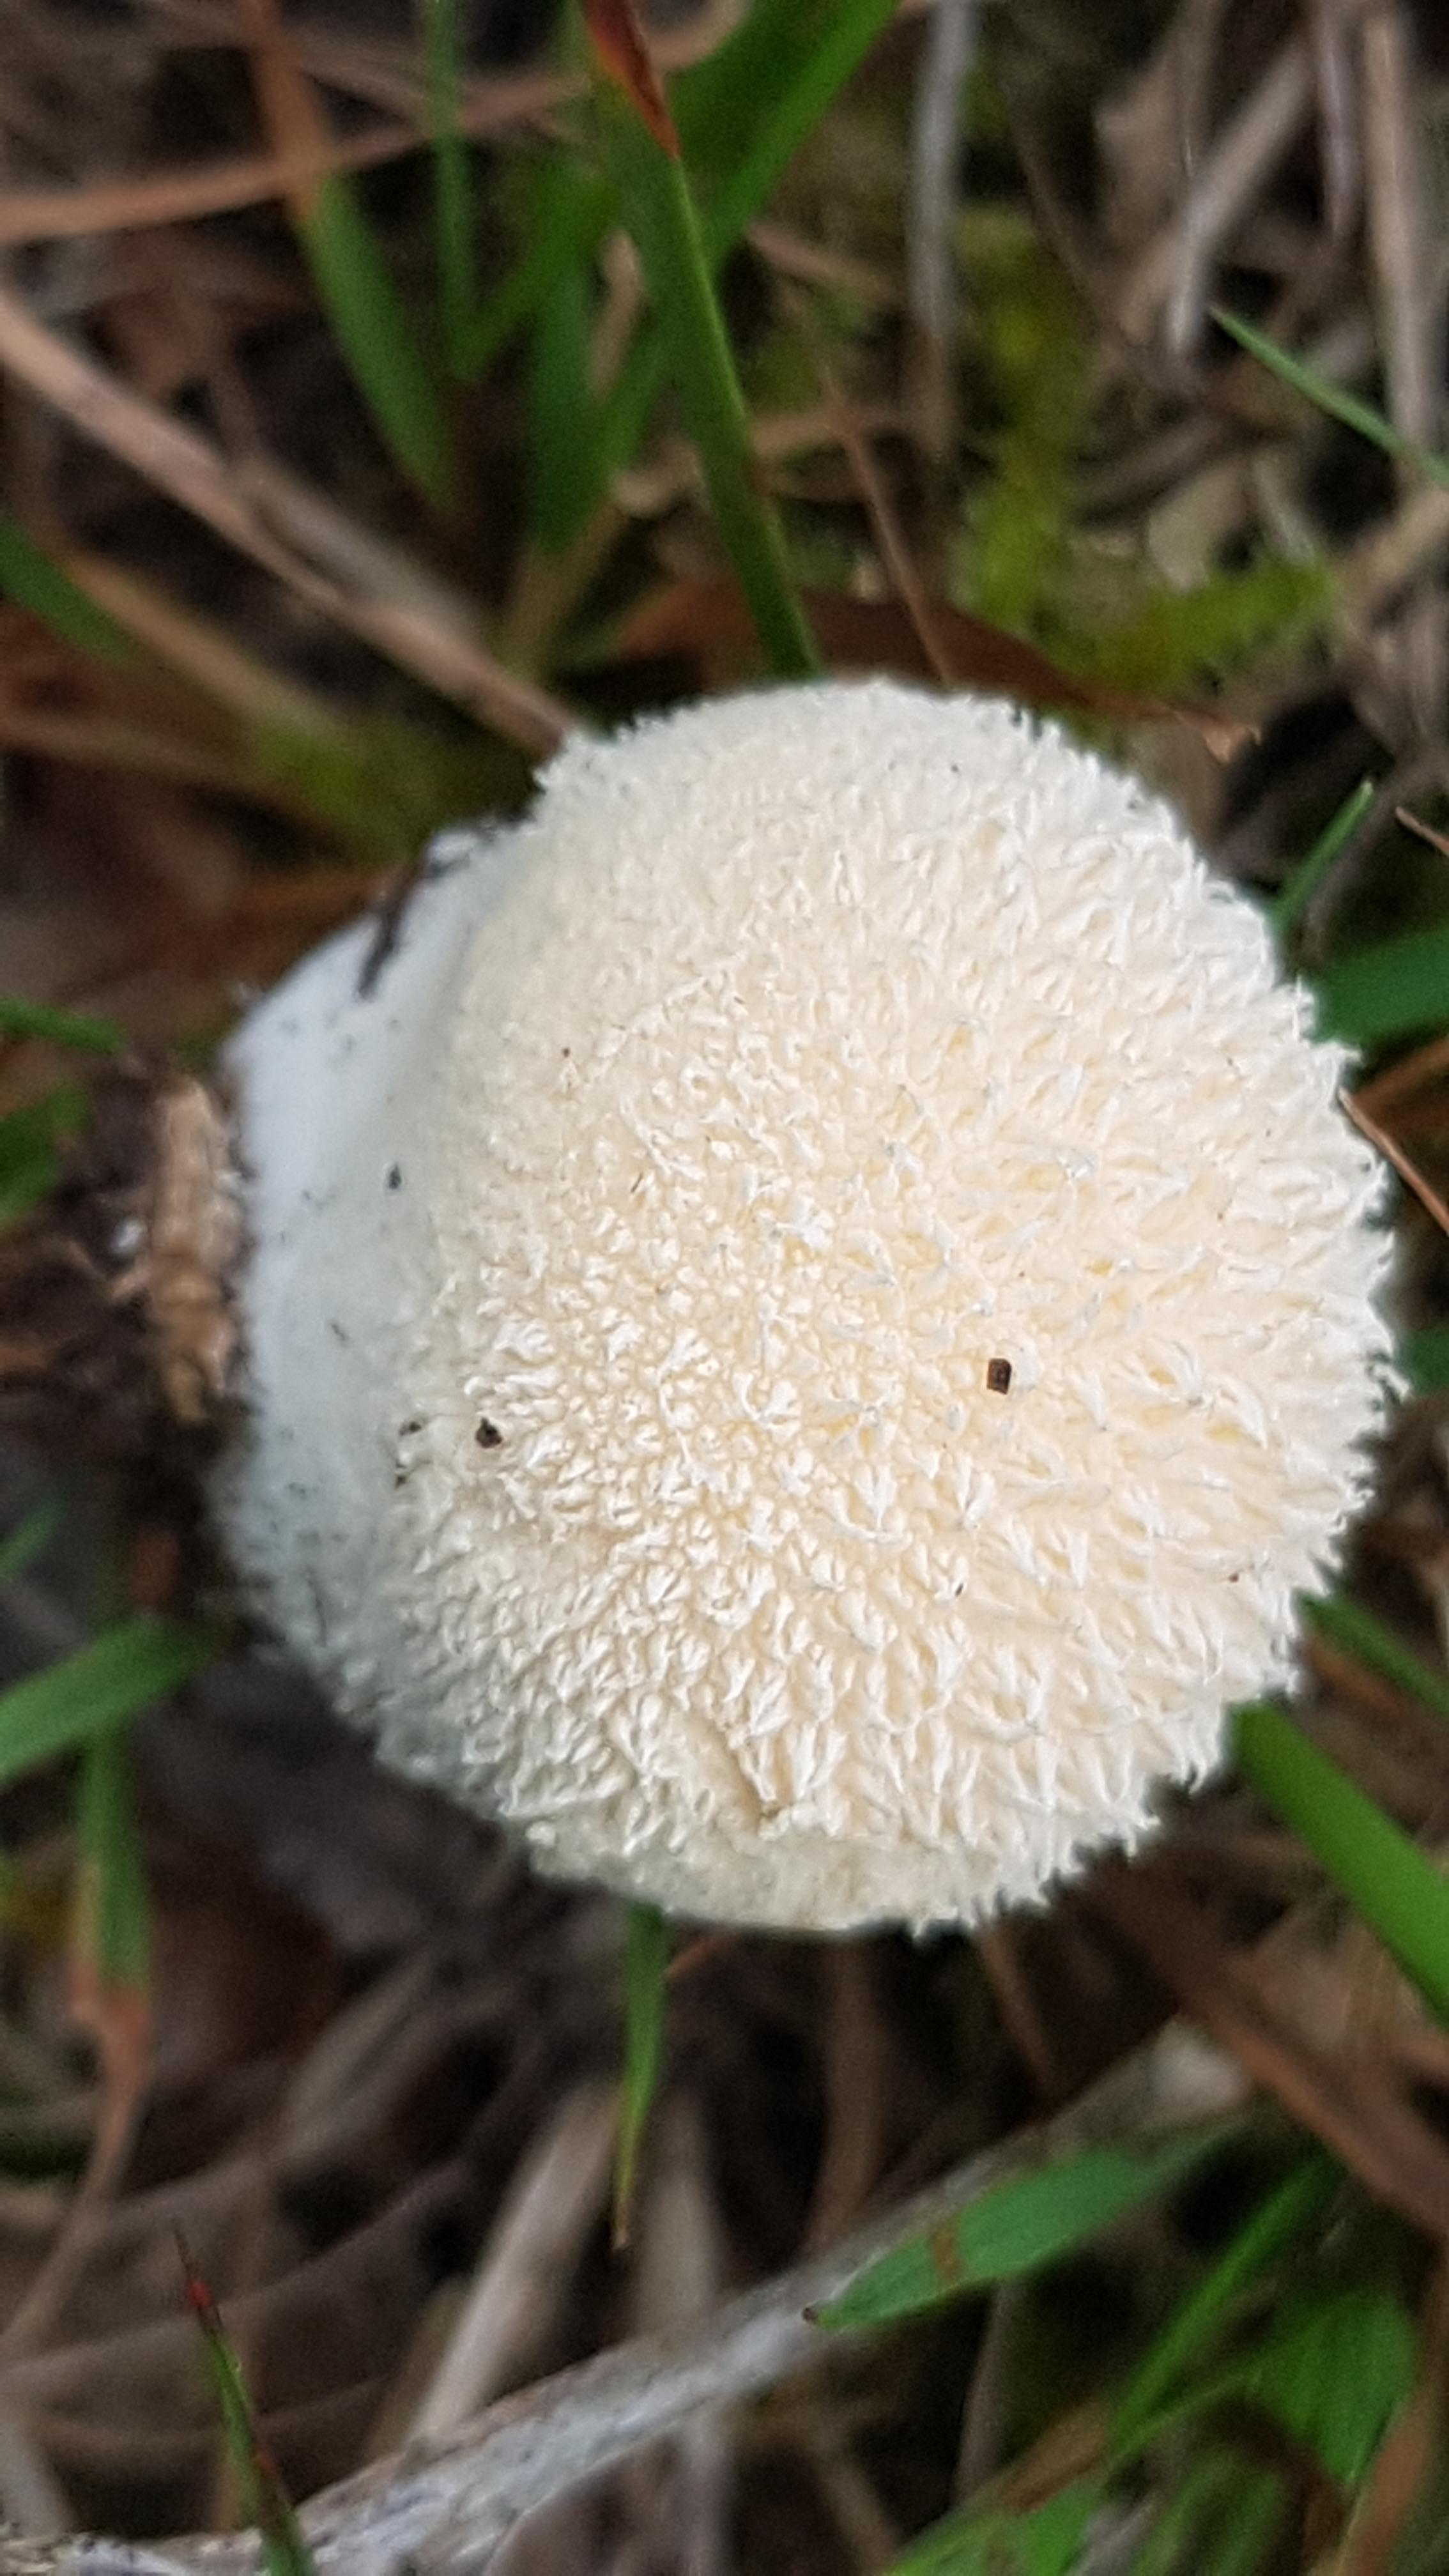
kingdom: Fungi
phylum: Basidiomycota
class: Agaricomycetes
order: Agaricales
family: Lycoperdaceae
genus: Lycoperdon
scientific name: Lycoperdon pratense
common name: flad støvbold
